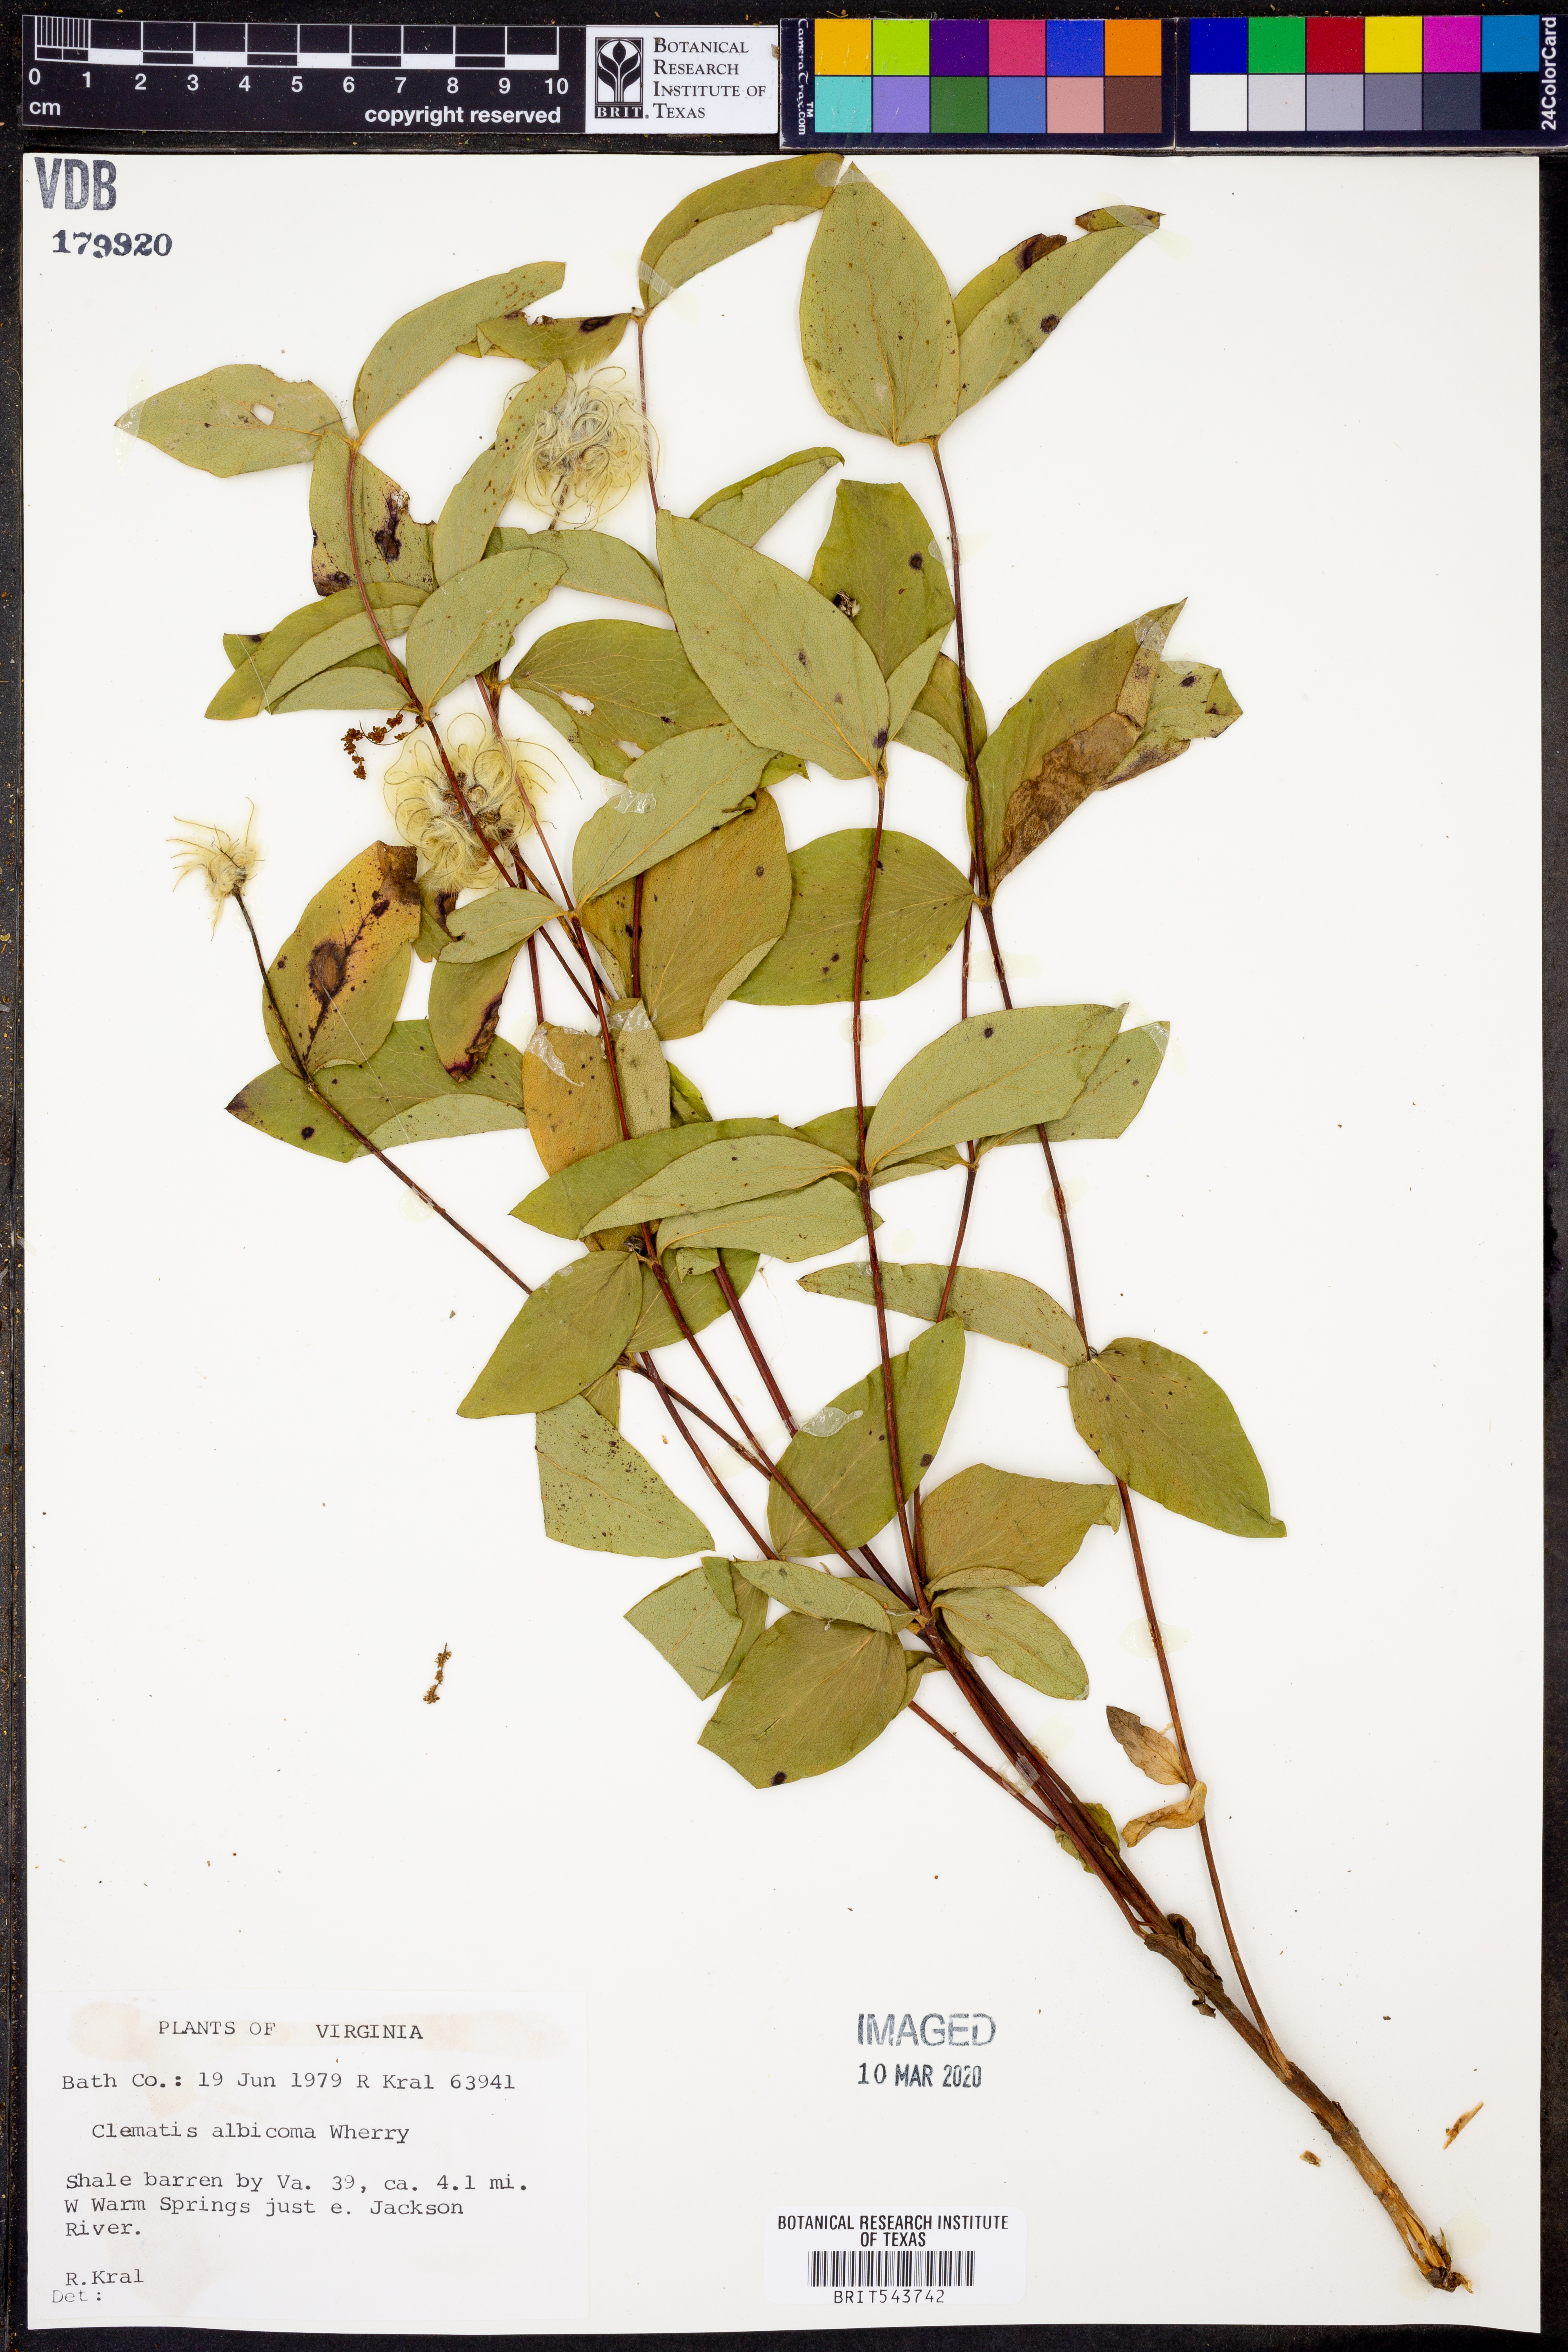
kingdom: Plantae
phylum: Tracheophyta
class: Magnoliopsida
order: Ranunculales
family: Ranunculaceae
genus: Clematis
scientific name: Clematis albicoma
